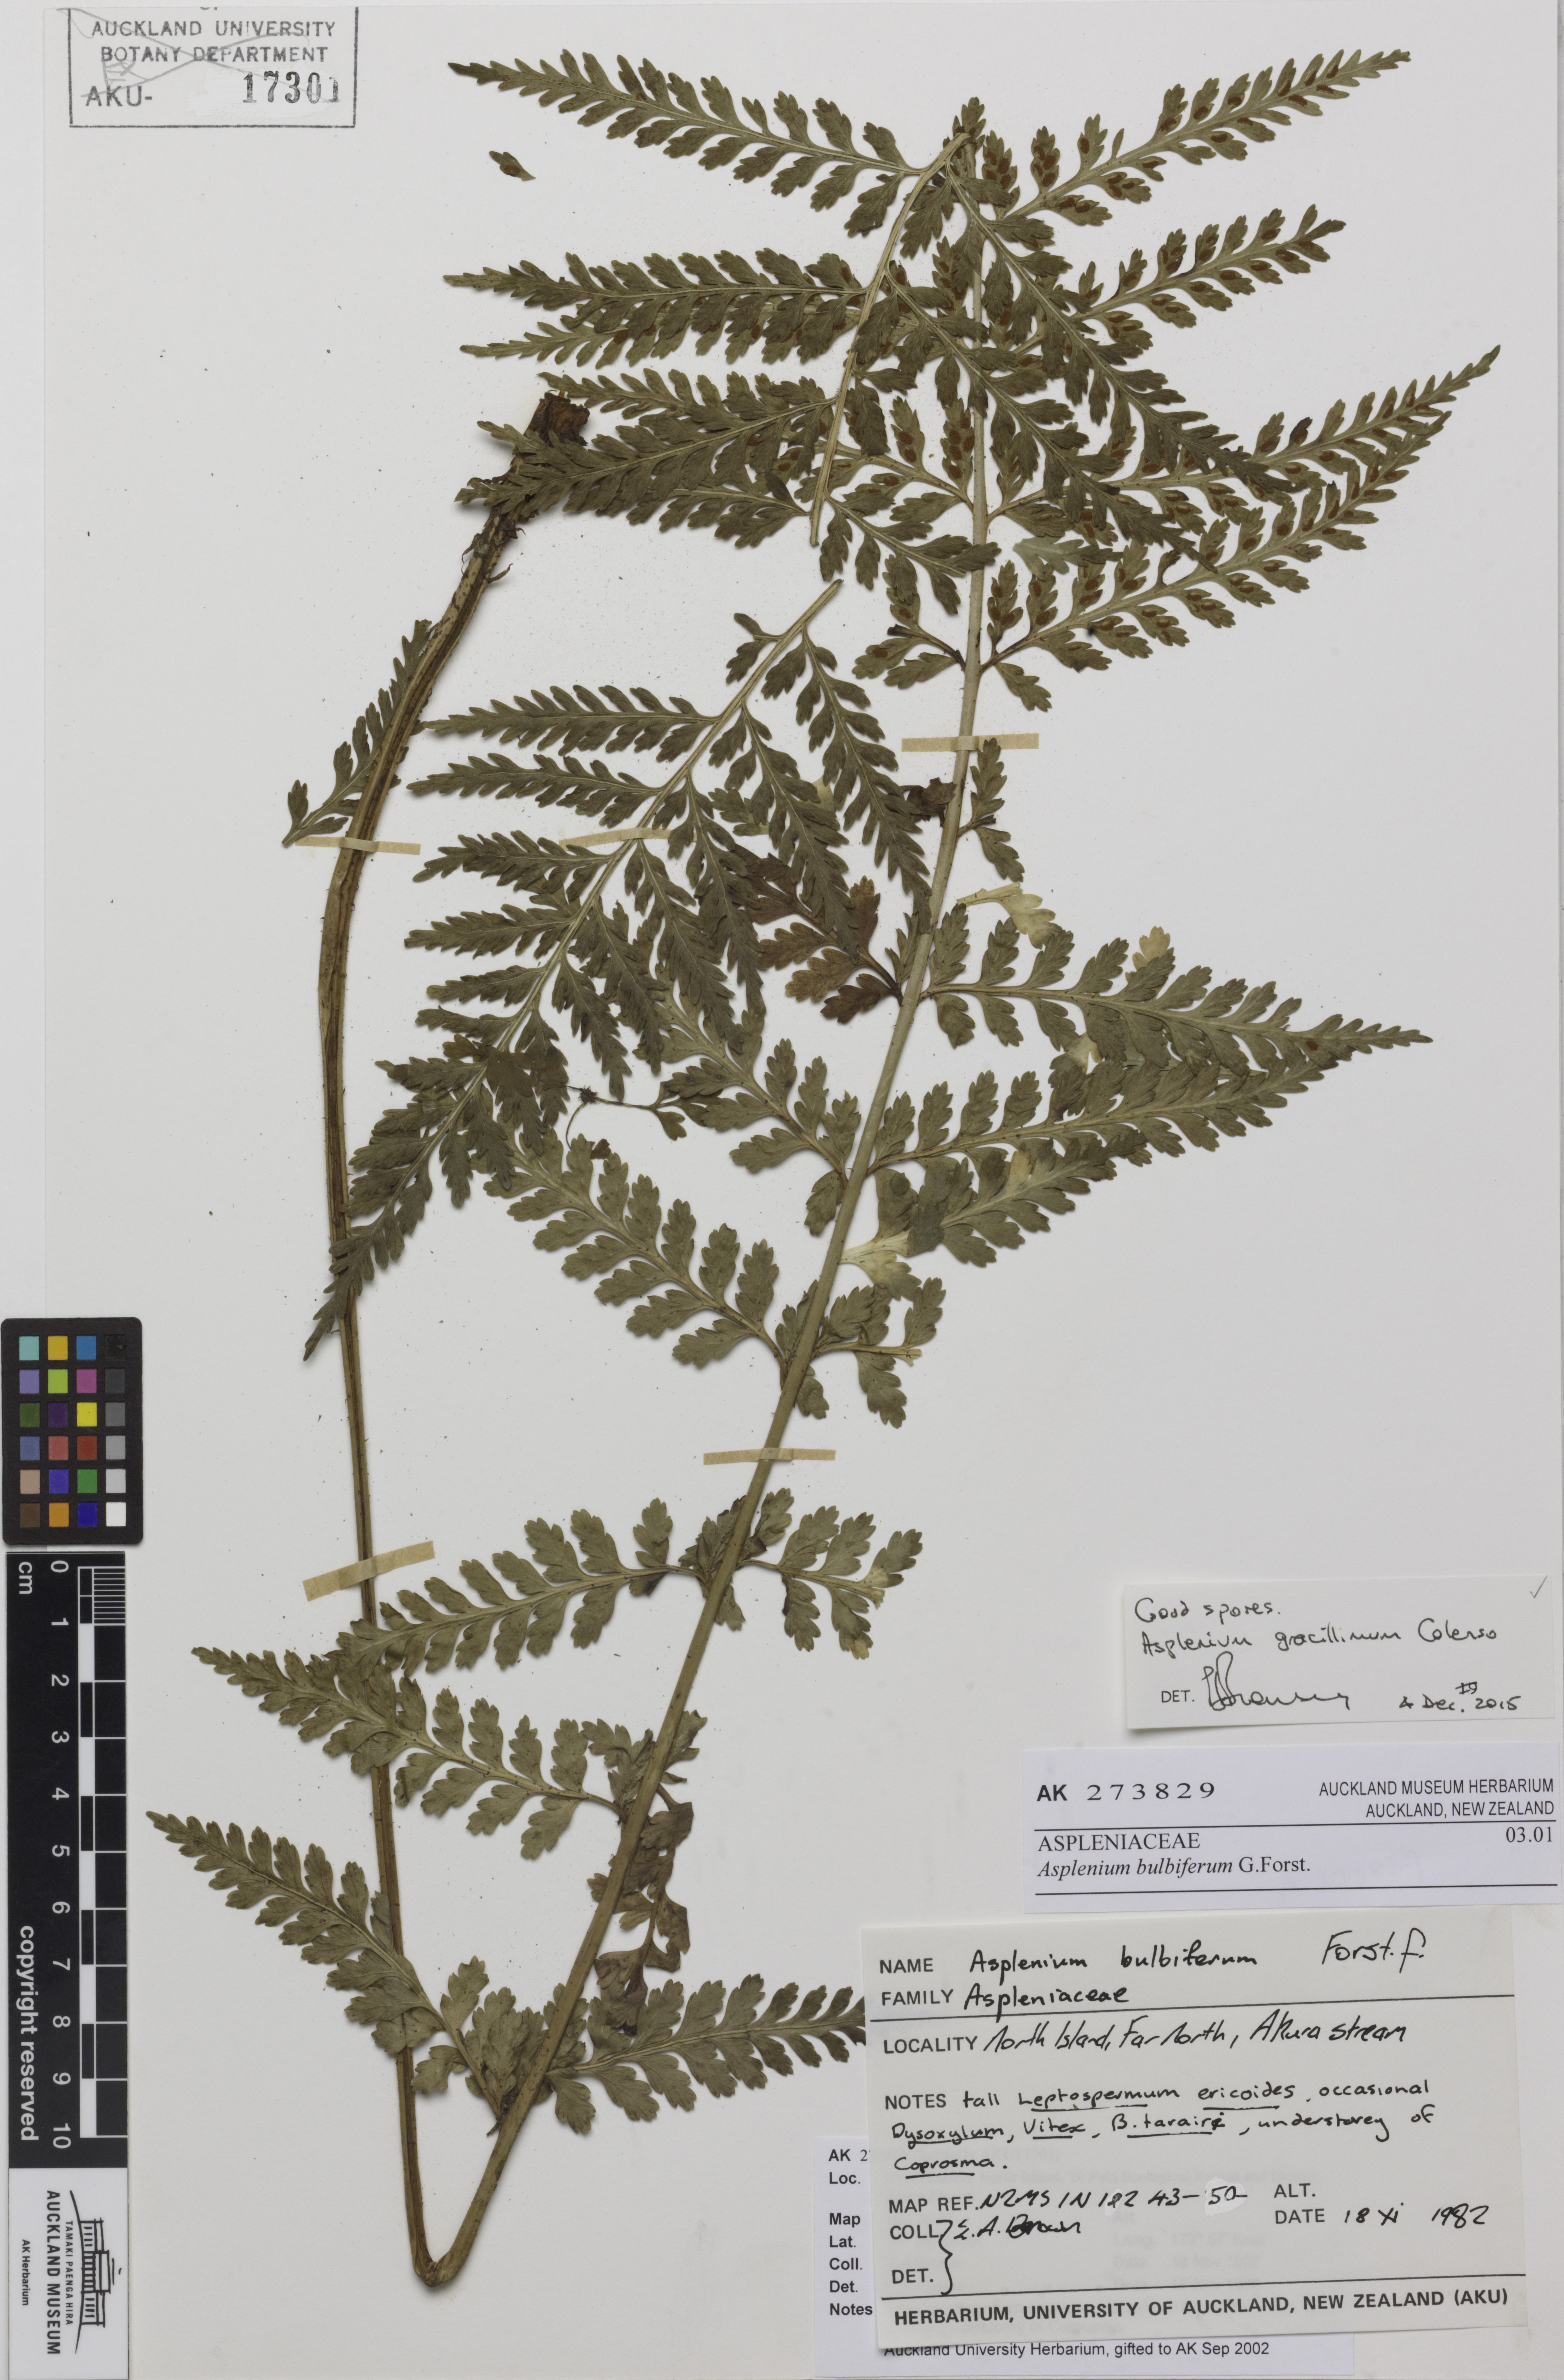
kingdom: Plantae
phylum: Tracheophyta
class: Polypodiopsida
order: Polypodiales
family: Aspleniaceae
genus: Asplenium
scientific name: Asplenium bulbiferum
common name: Mother fern
